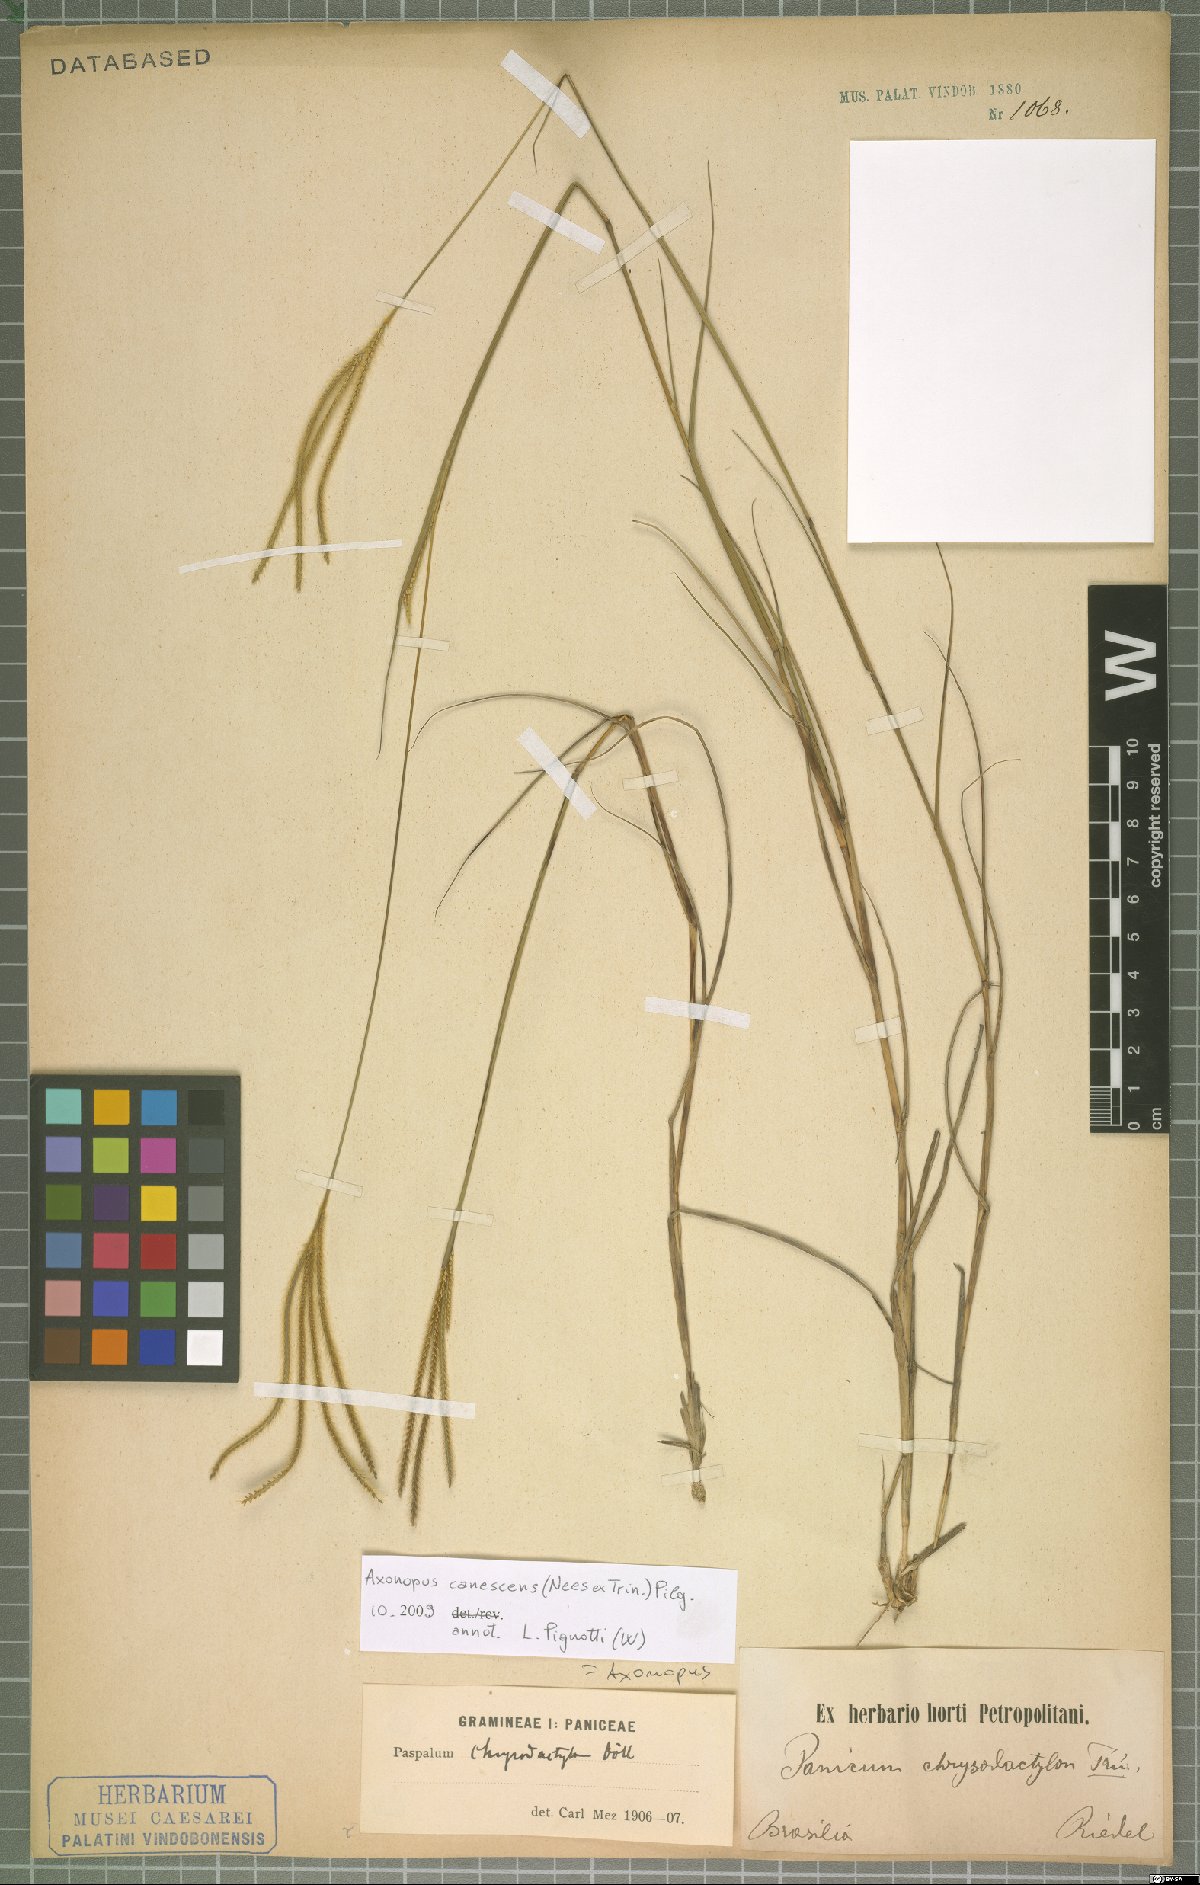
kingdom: Plantae
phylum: Tracheophyta
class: Liliopsida
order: Poales
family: Poaceae
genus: Axonopus
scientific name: Axonopus aureus
